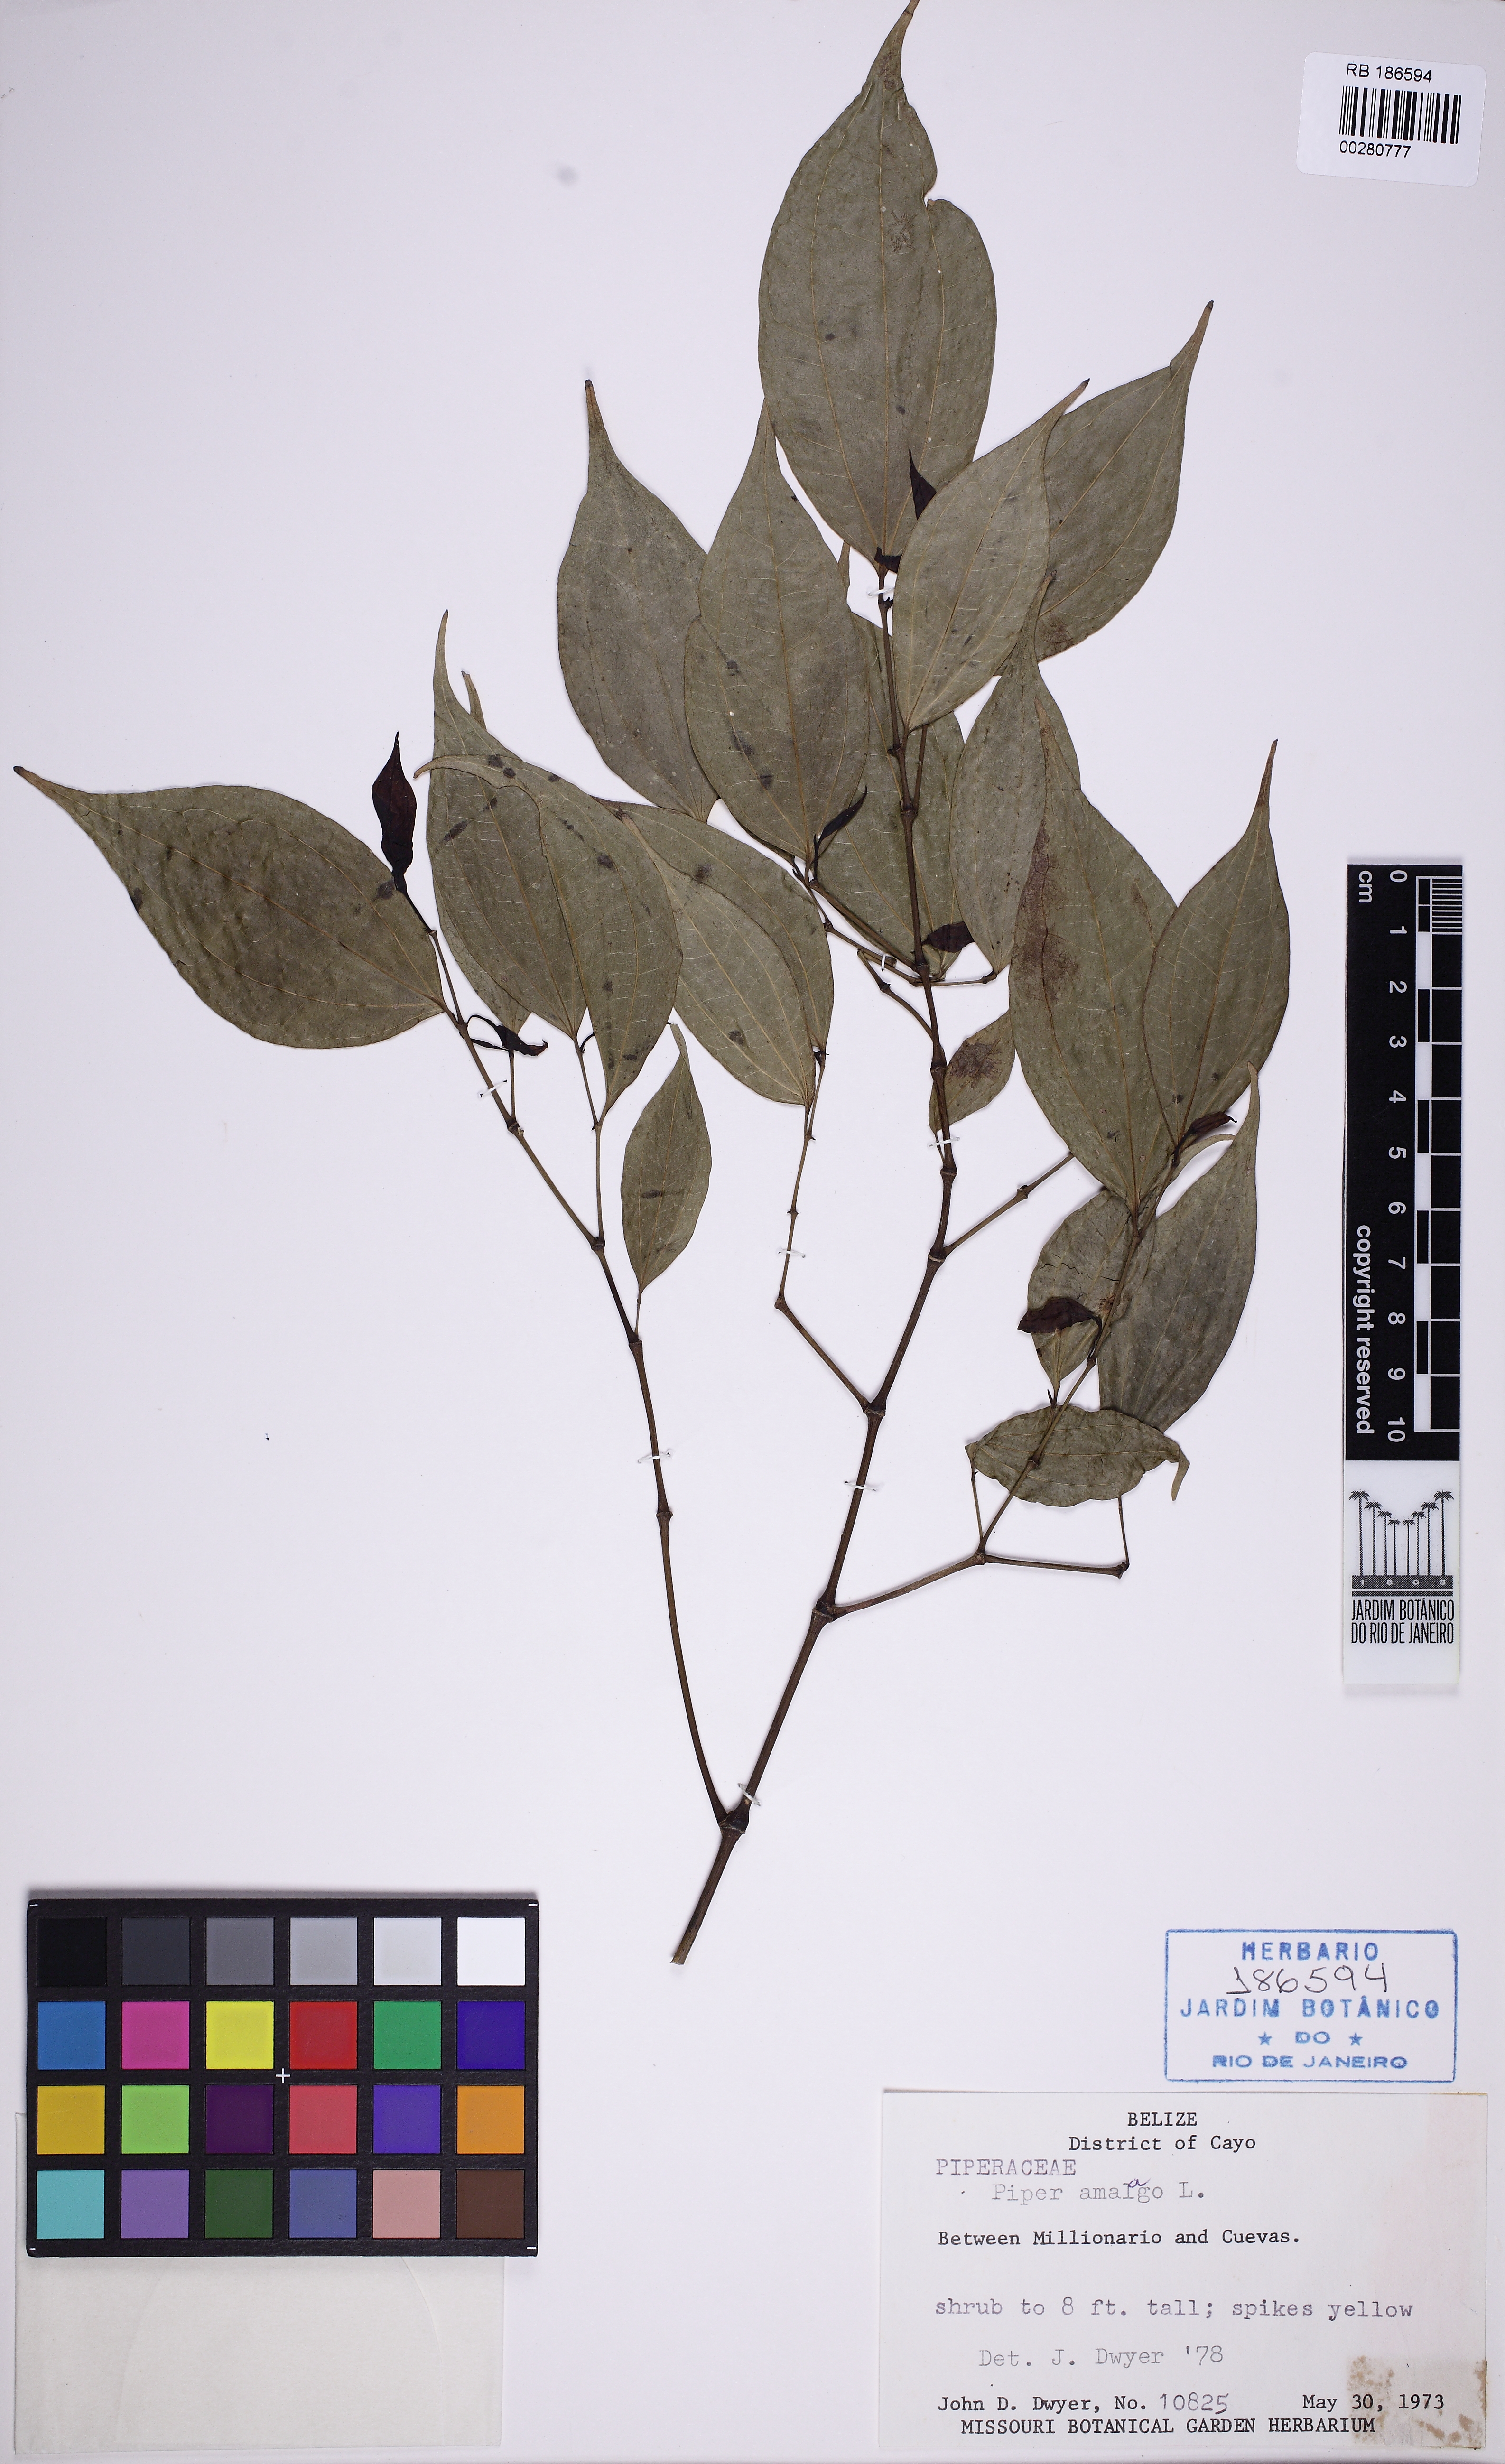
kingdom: Plantae
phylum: Tracheophyta
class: Magnoliopsida
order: Piperales
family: Piperaceae
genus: Piper
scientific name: Piper amalago
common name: Pepper-elder
